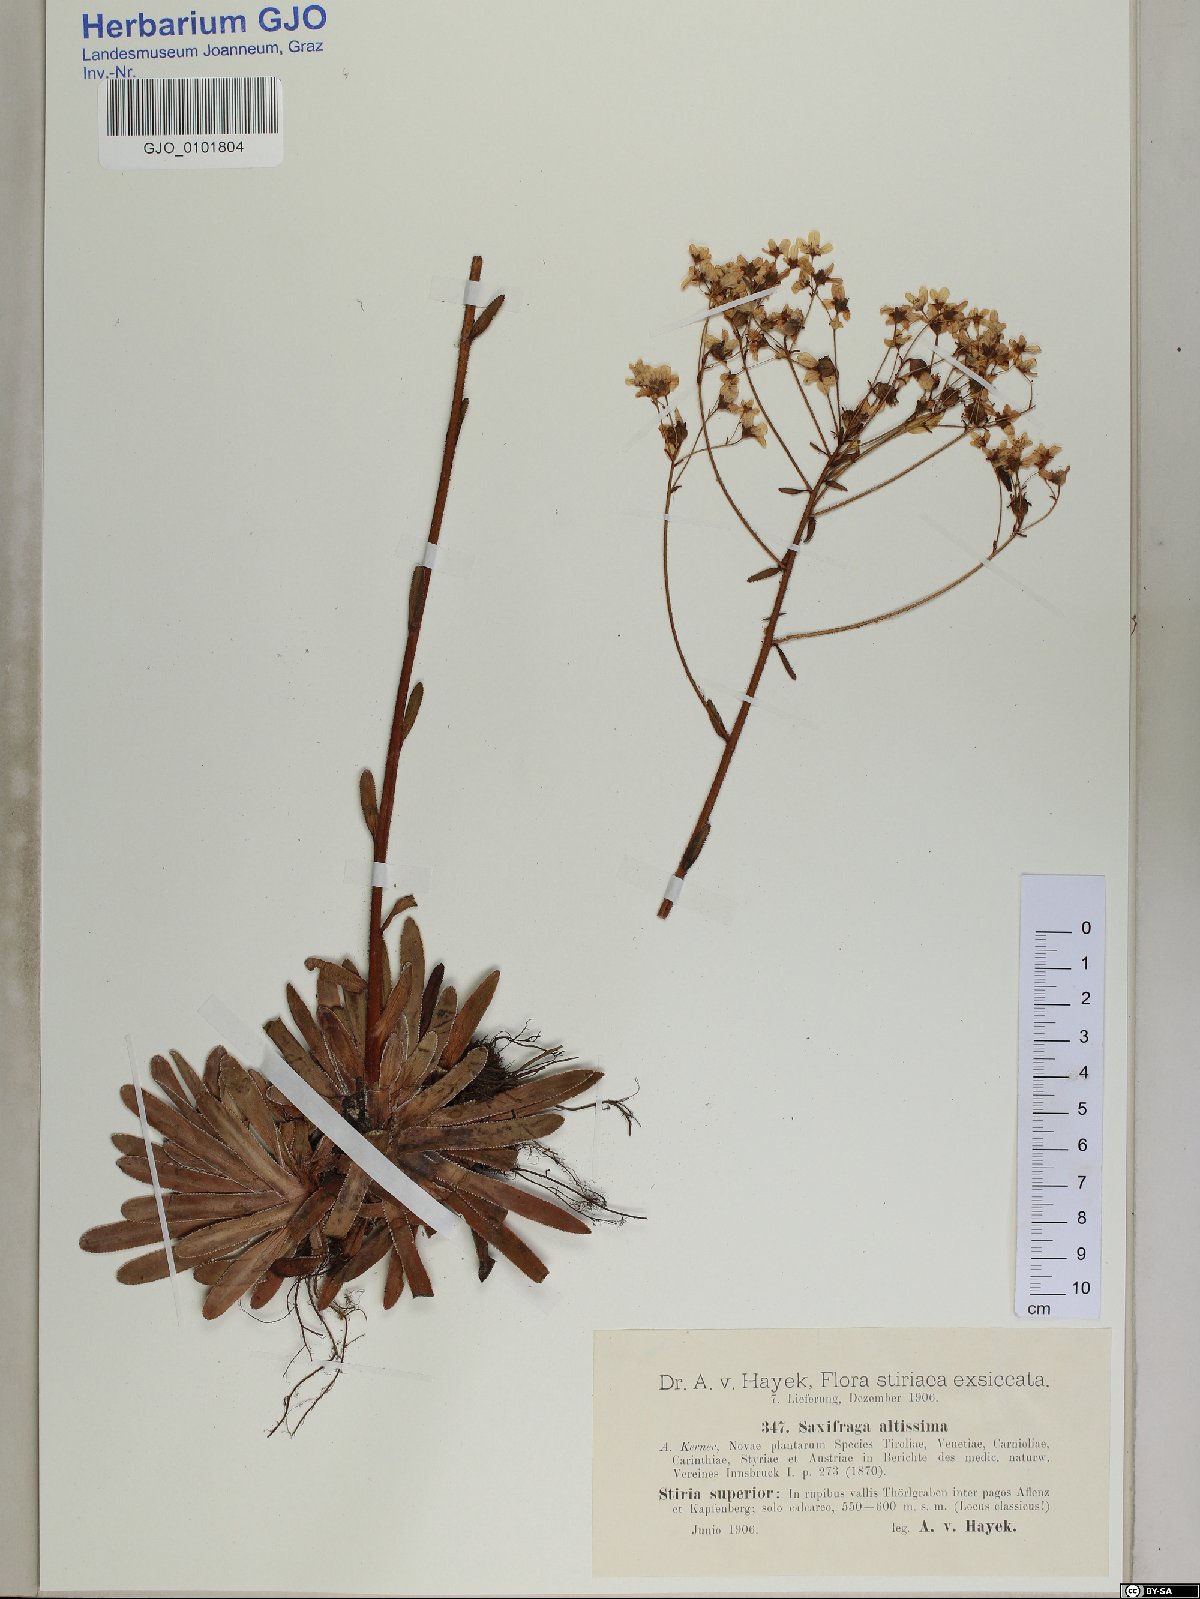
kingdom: Plantae
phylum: Tracheophyta
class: Magnoliopsida
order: Saxifragales
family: Saxifragaceae
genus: Saxifraga
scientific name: Saxifraga hostii
